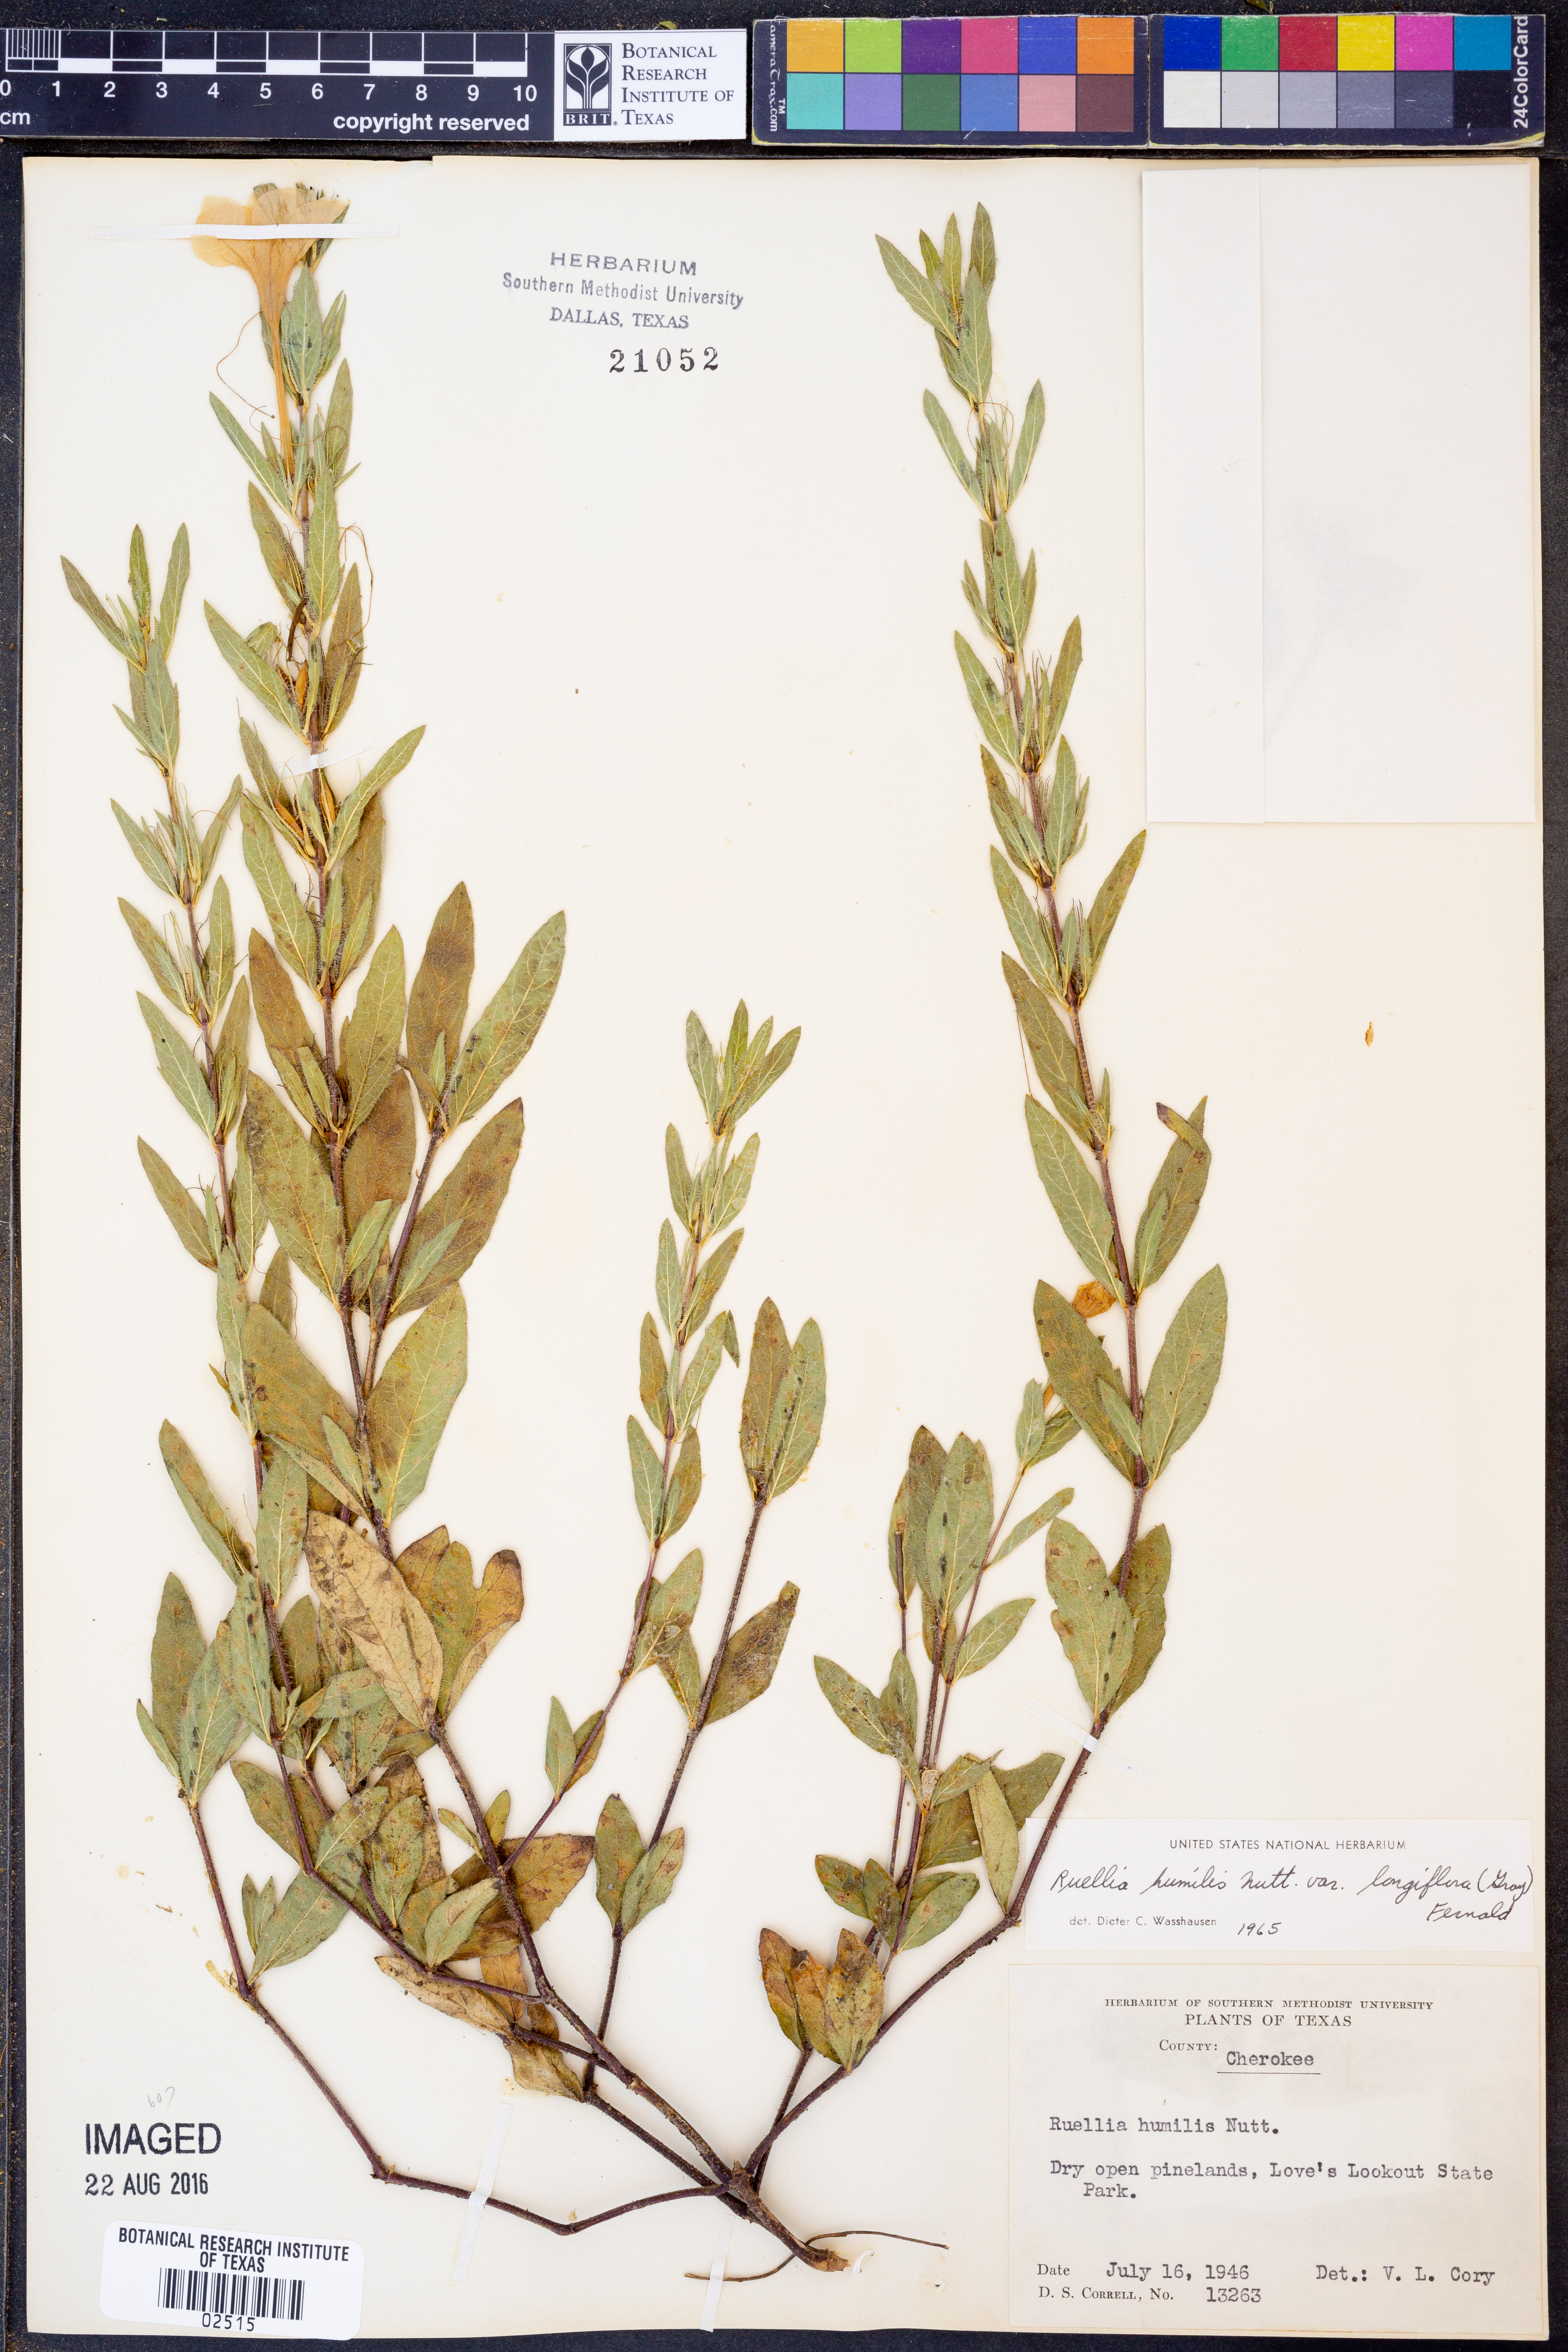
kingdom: Plantae
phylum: Tracheophyta
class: Magnoliopsida
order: Lamiales
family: Acanthaceae
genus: Ruellia
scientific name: Ruellia humilis
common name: Fringe-leaf ruellia
